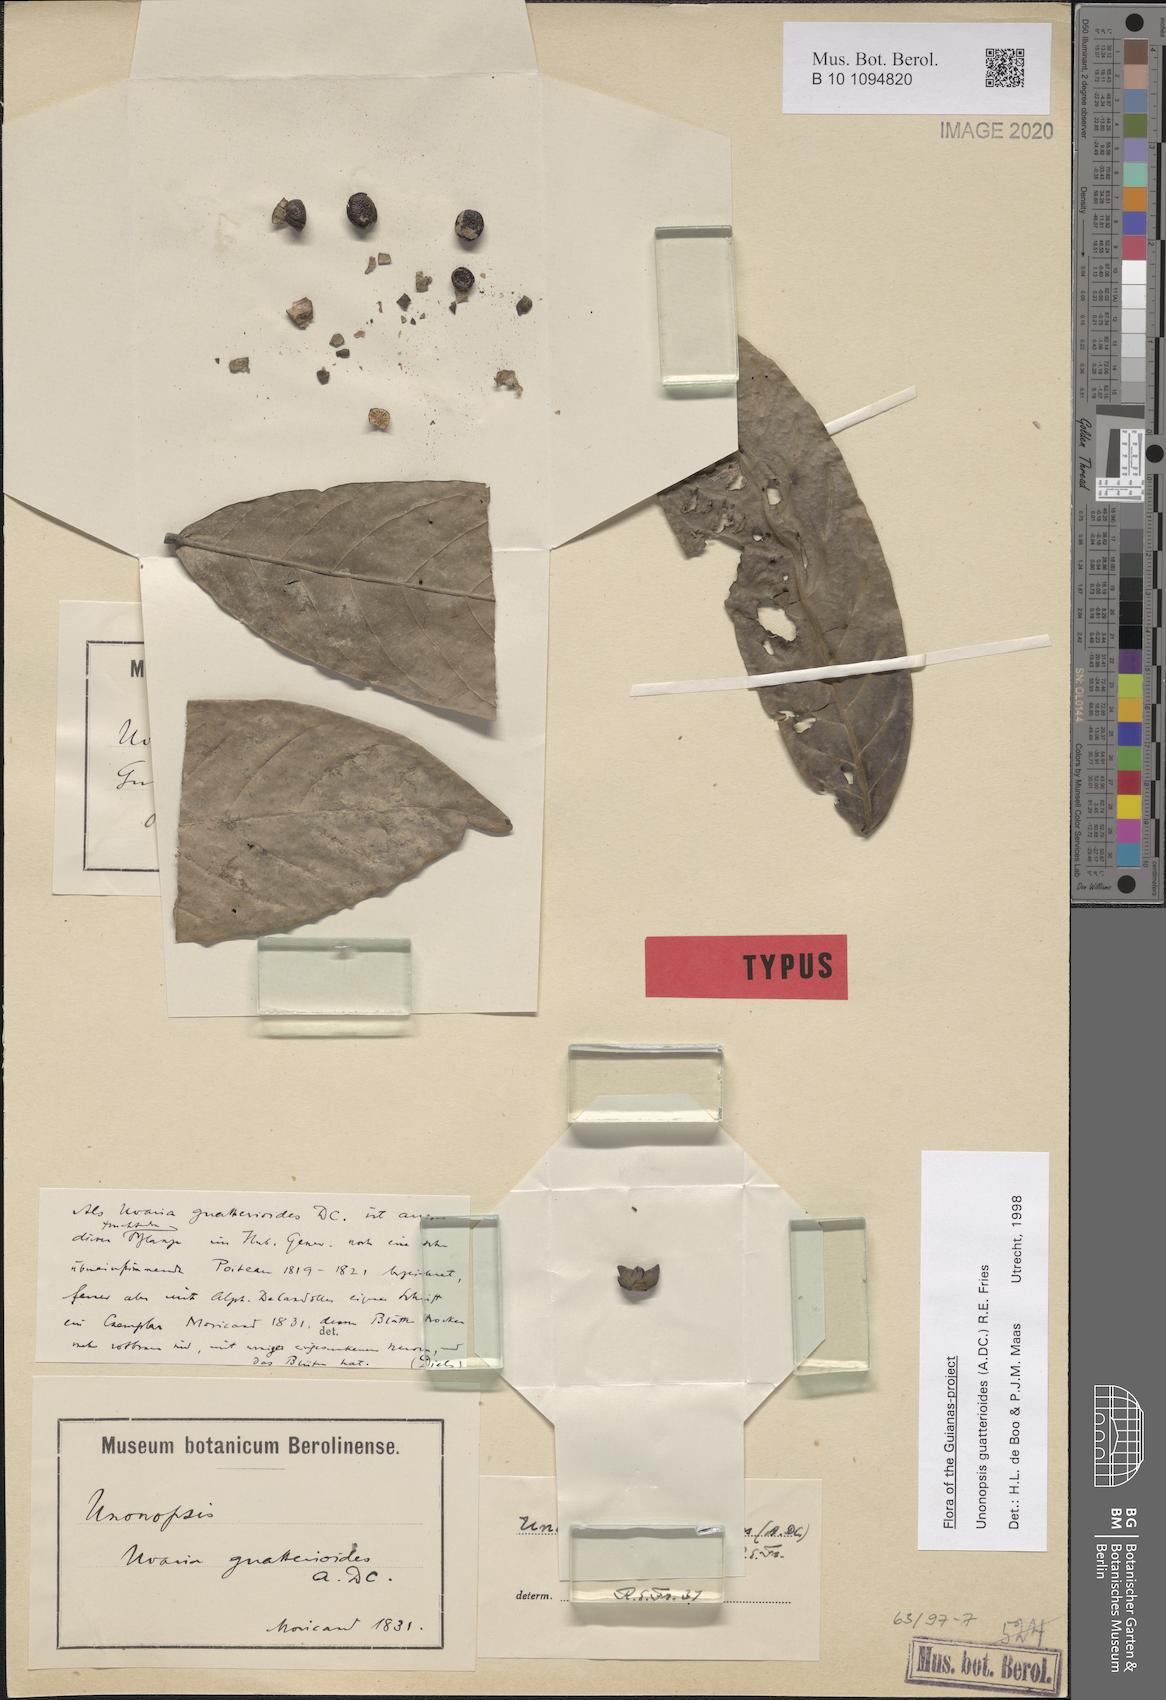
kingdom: Plantae
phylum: Tracheophyta
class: Magnoliopsida
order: Magnoliales
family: Annonaceae
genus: Unonopsis
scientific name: Unonopsis guatterioides
